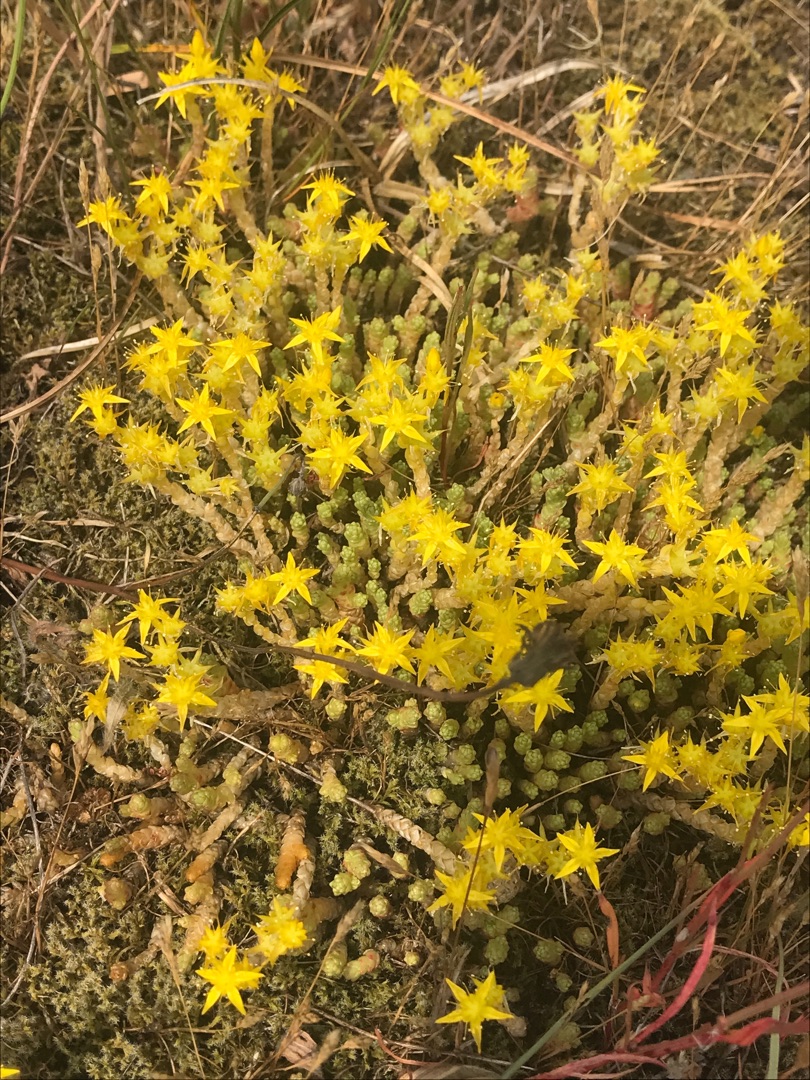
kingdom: Plantae
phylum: Tracheophyta
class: Magnoliopsida
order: Saxifragales
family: Crassulaceae
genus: Sedum
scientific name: Sedum acre
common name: Bidende stenurt
